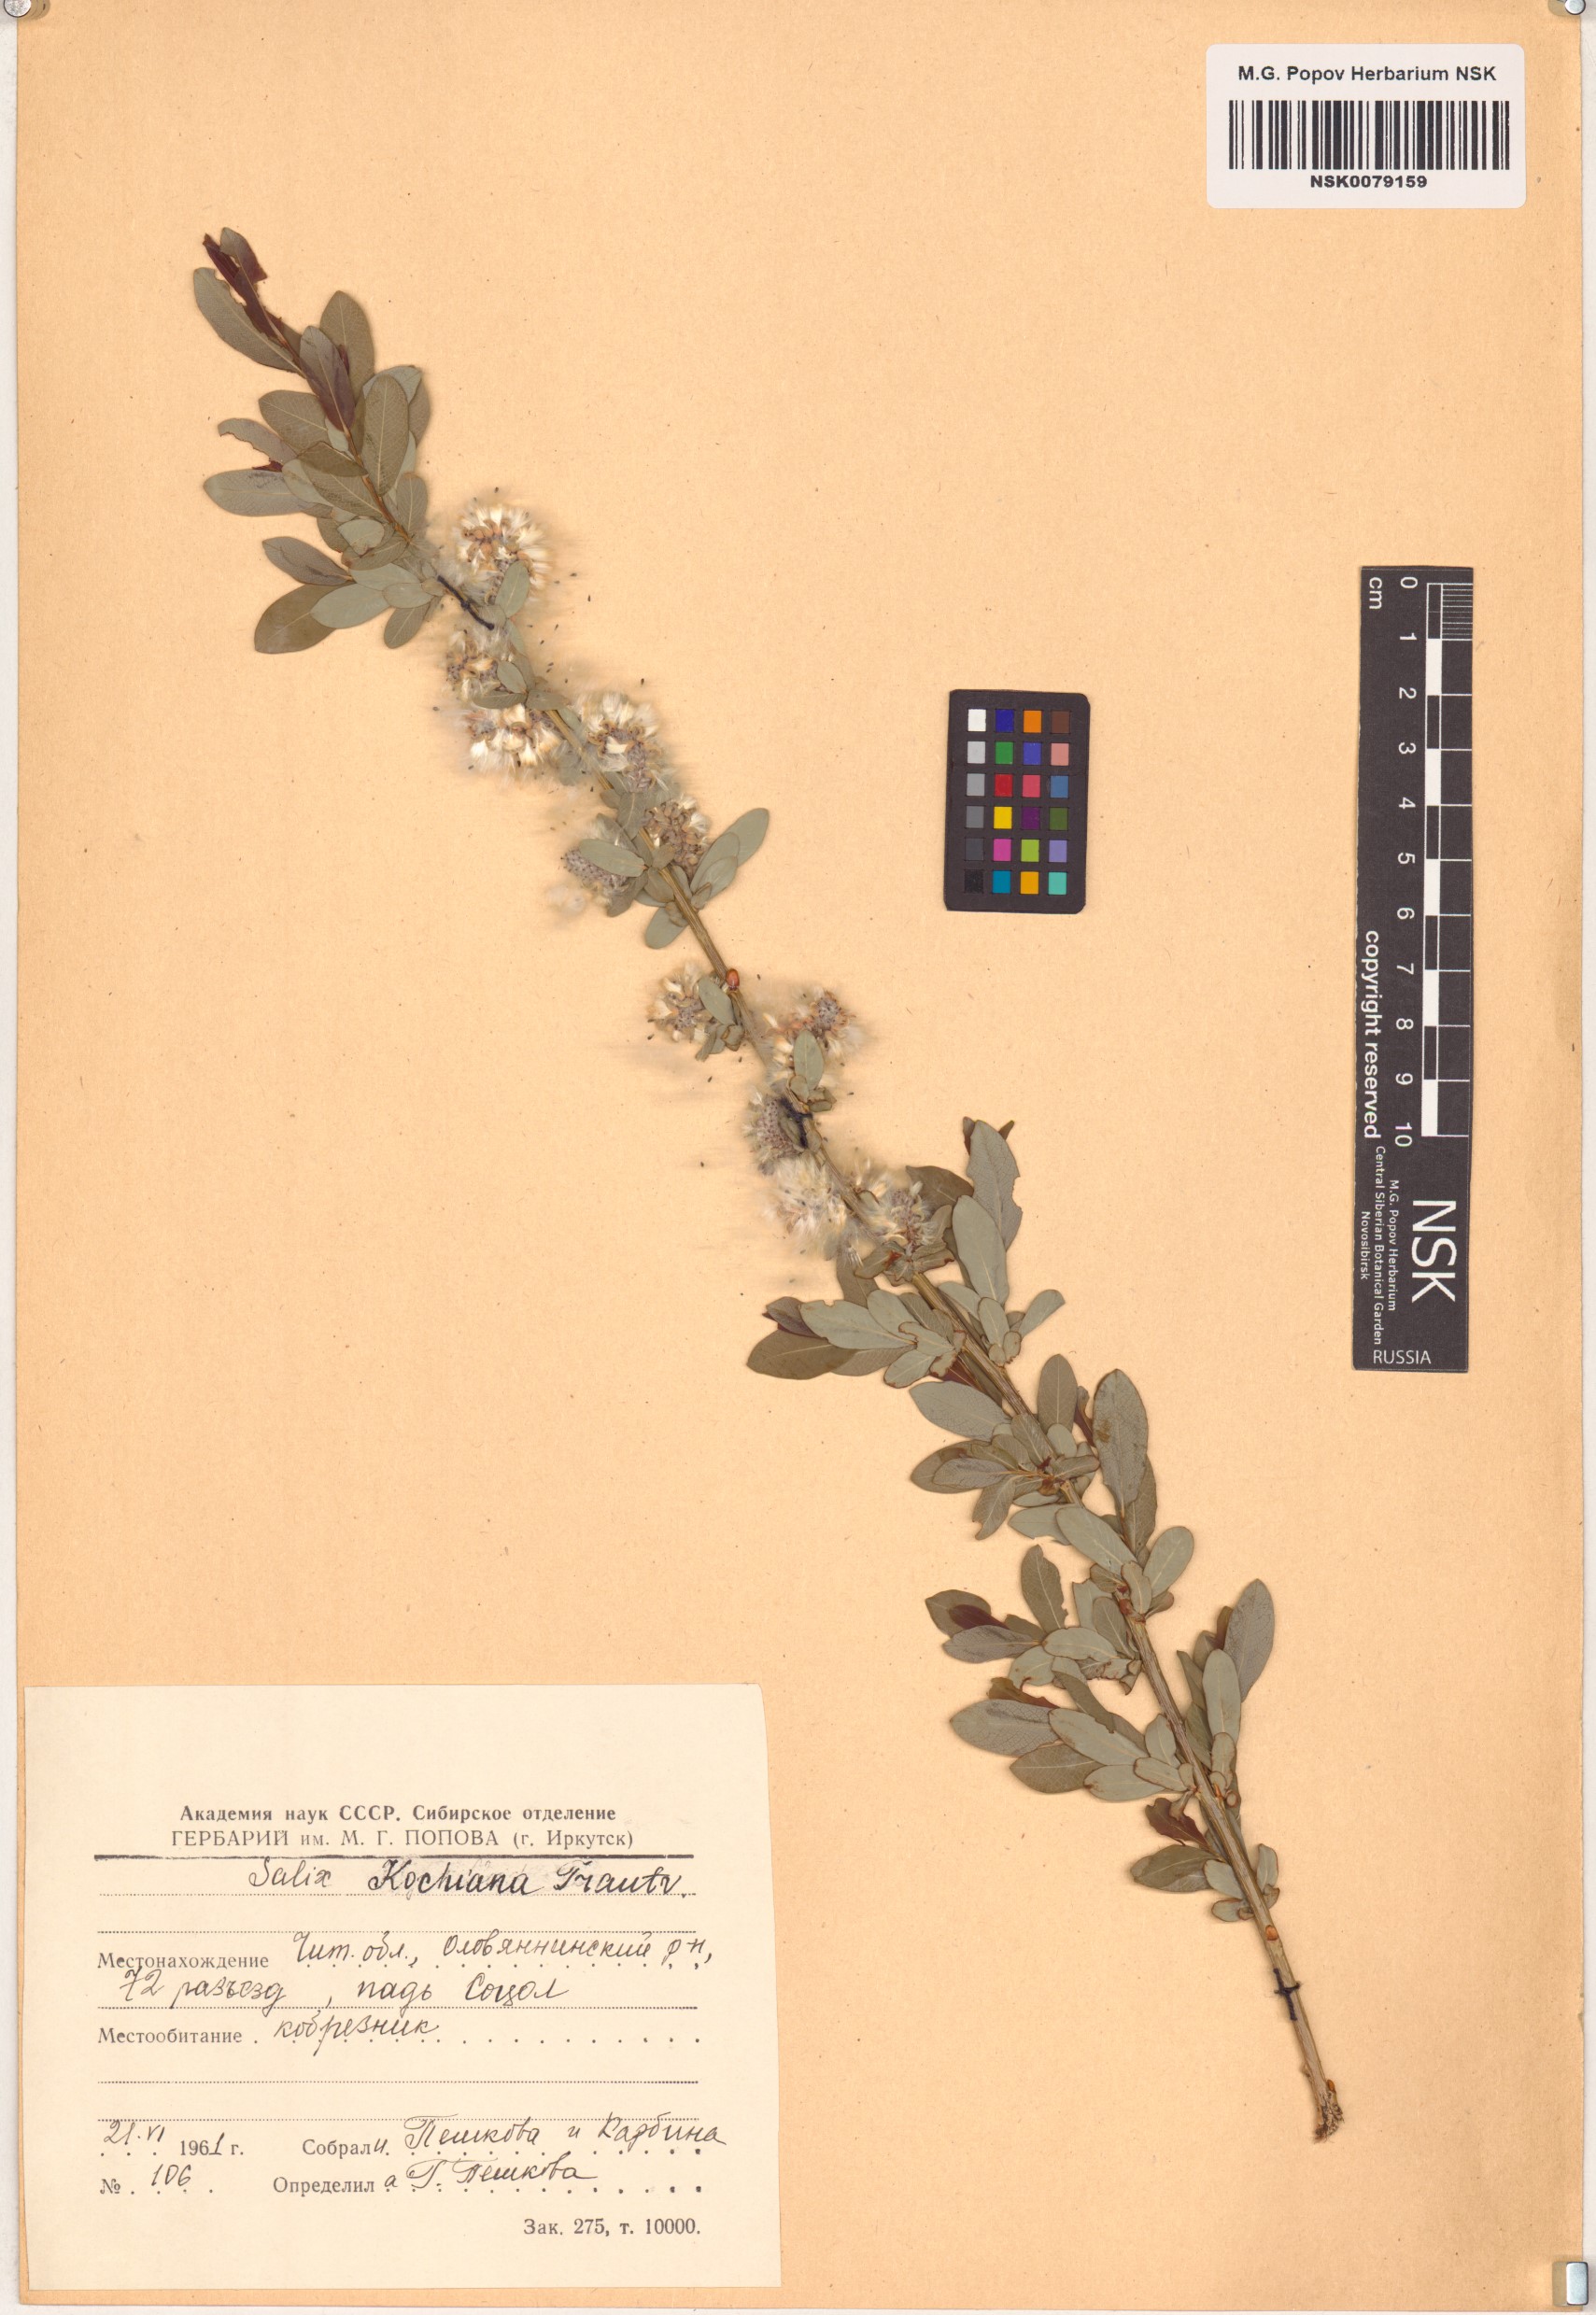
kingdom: Plantae
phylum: Tracheophyta
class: Magnoliopsida
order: Malpighiales
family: Salicaceae
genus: Salix
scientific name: Salix kochiana
